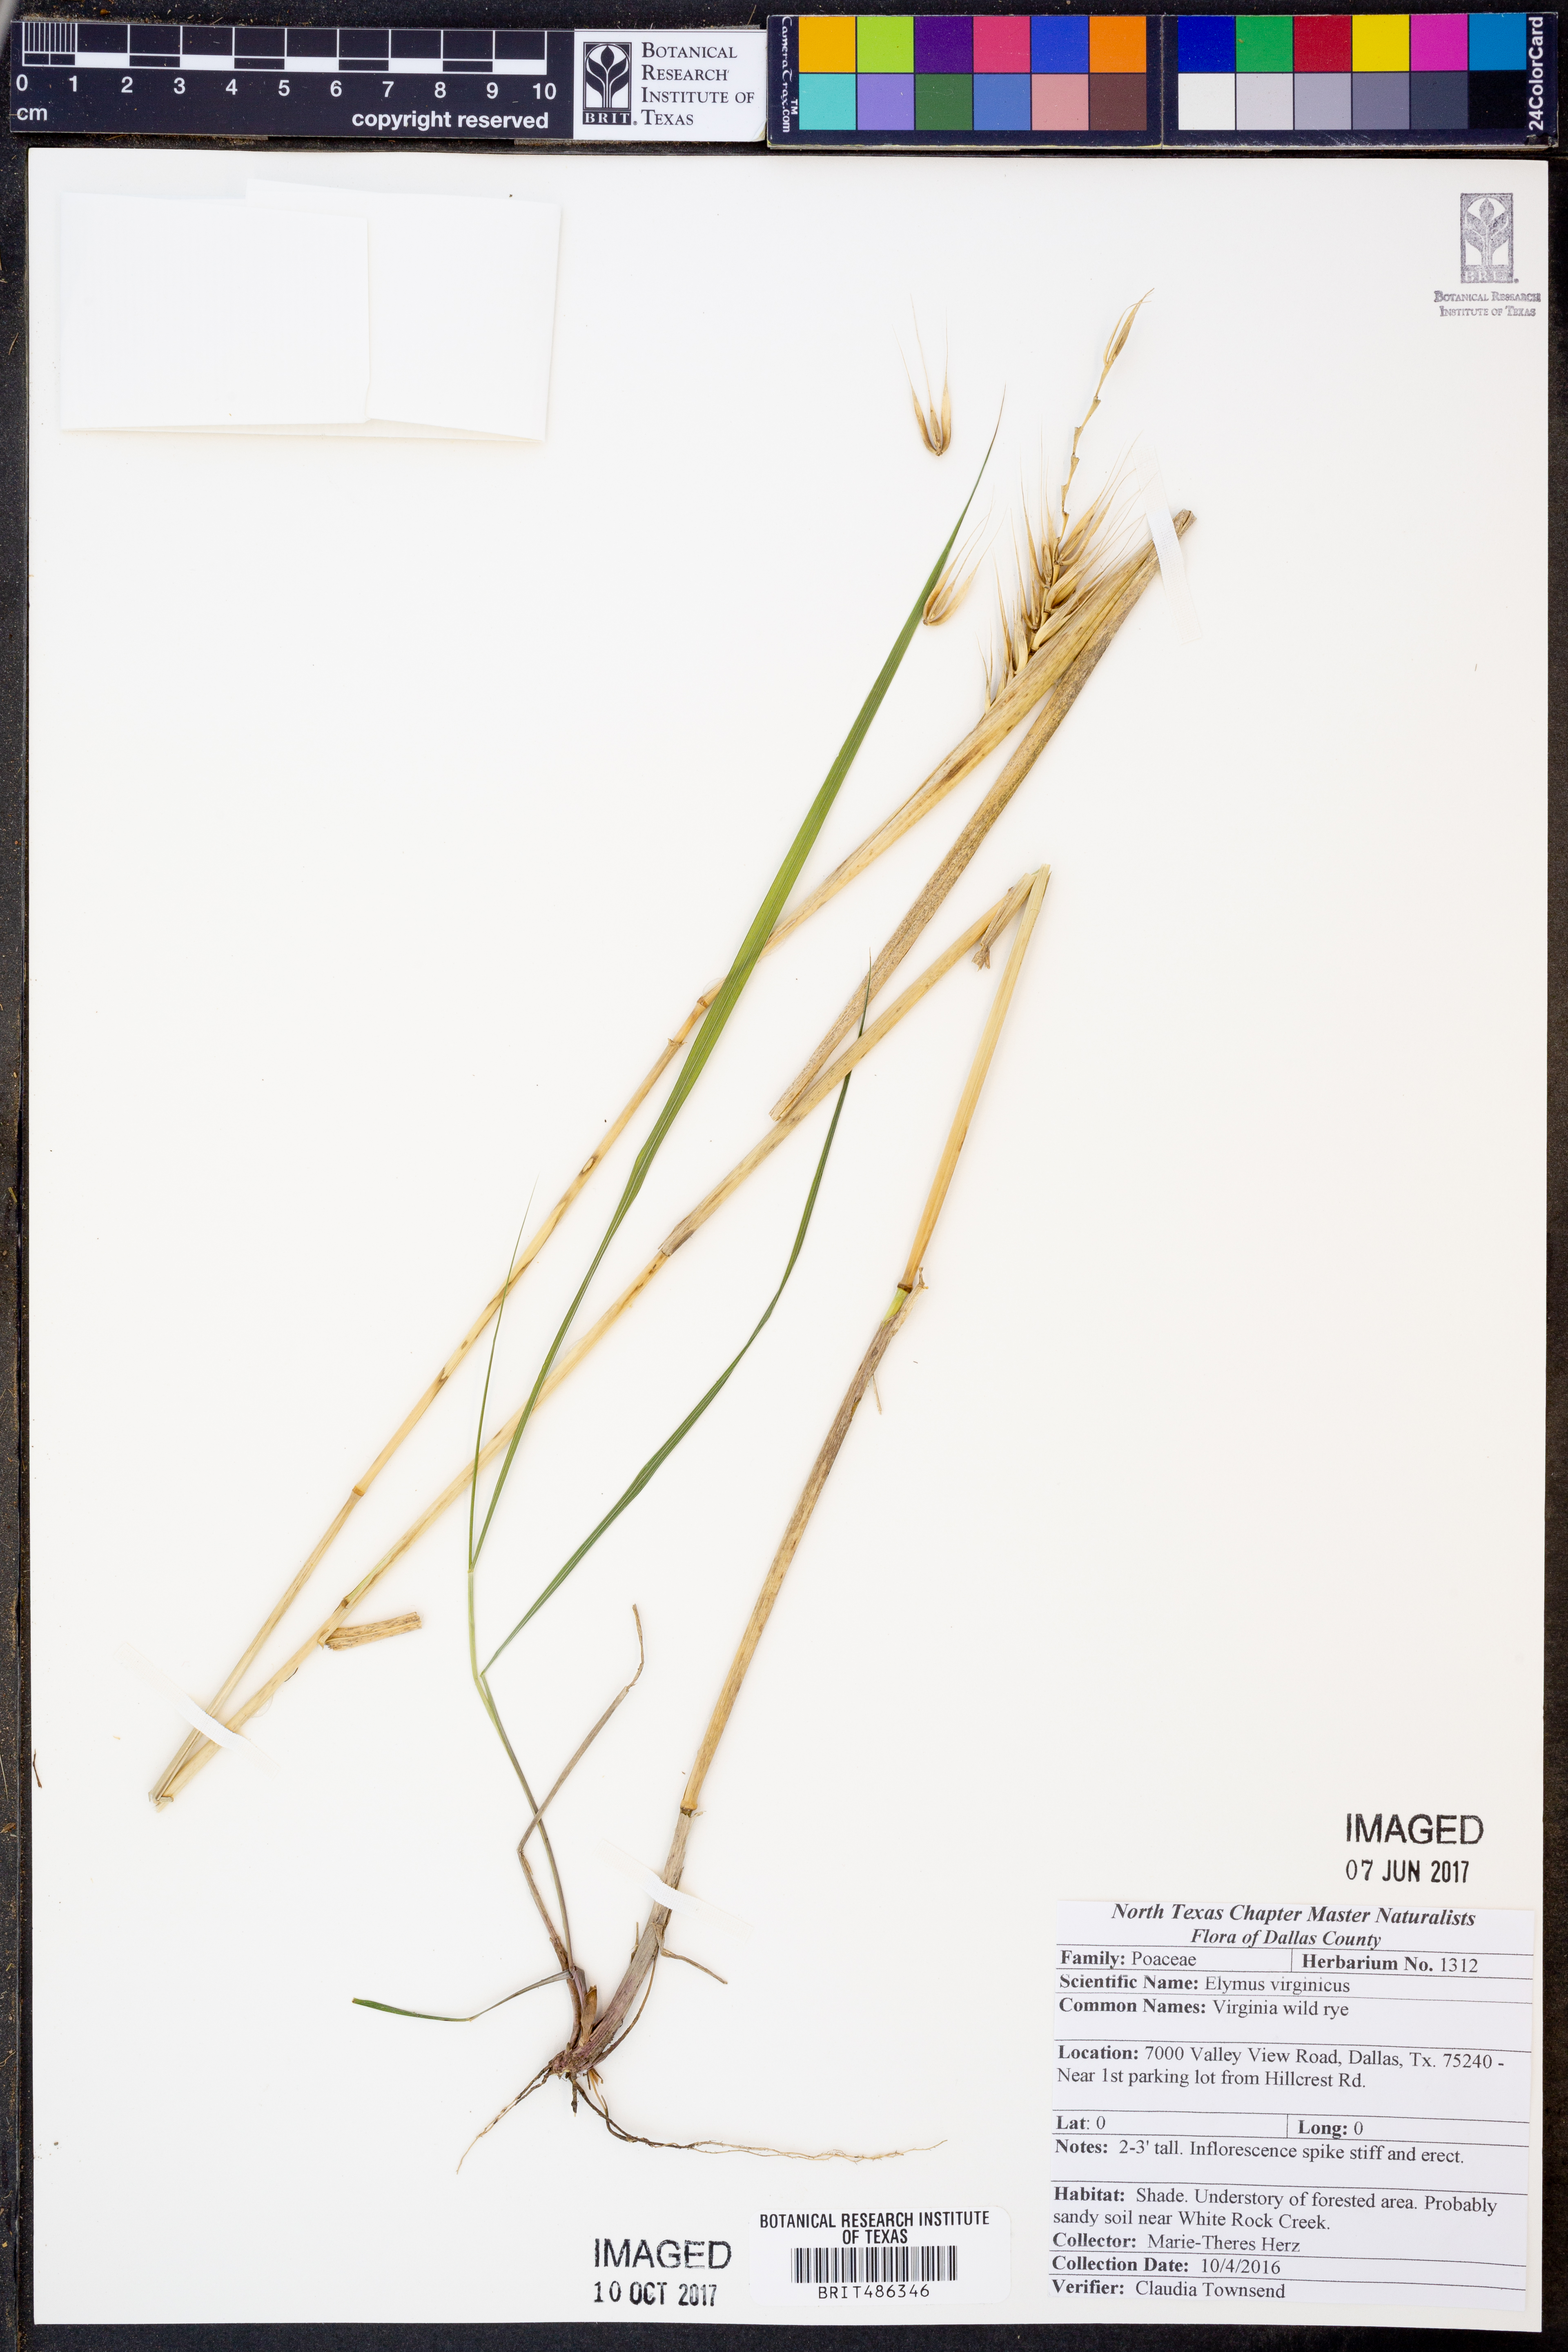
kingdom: Plantae
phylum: Tracheophyta
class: Liliopsida
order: Poales
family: Poaceae
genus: Elymus
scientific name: Elymus virginicus
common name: Common eastern wildrye
